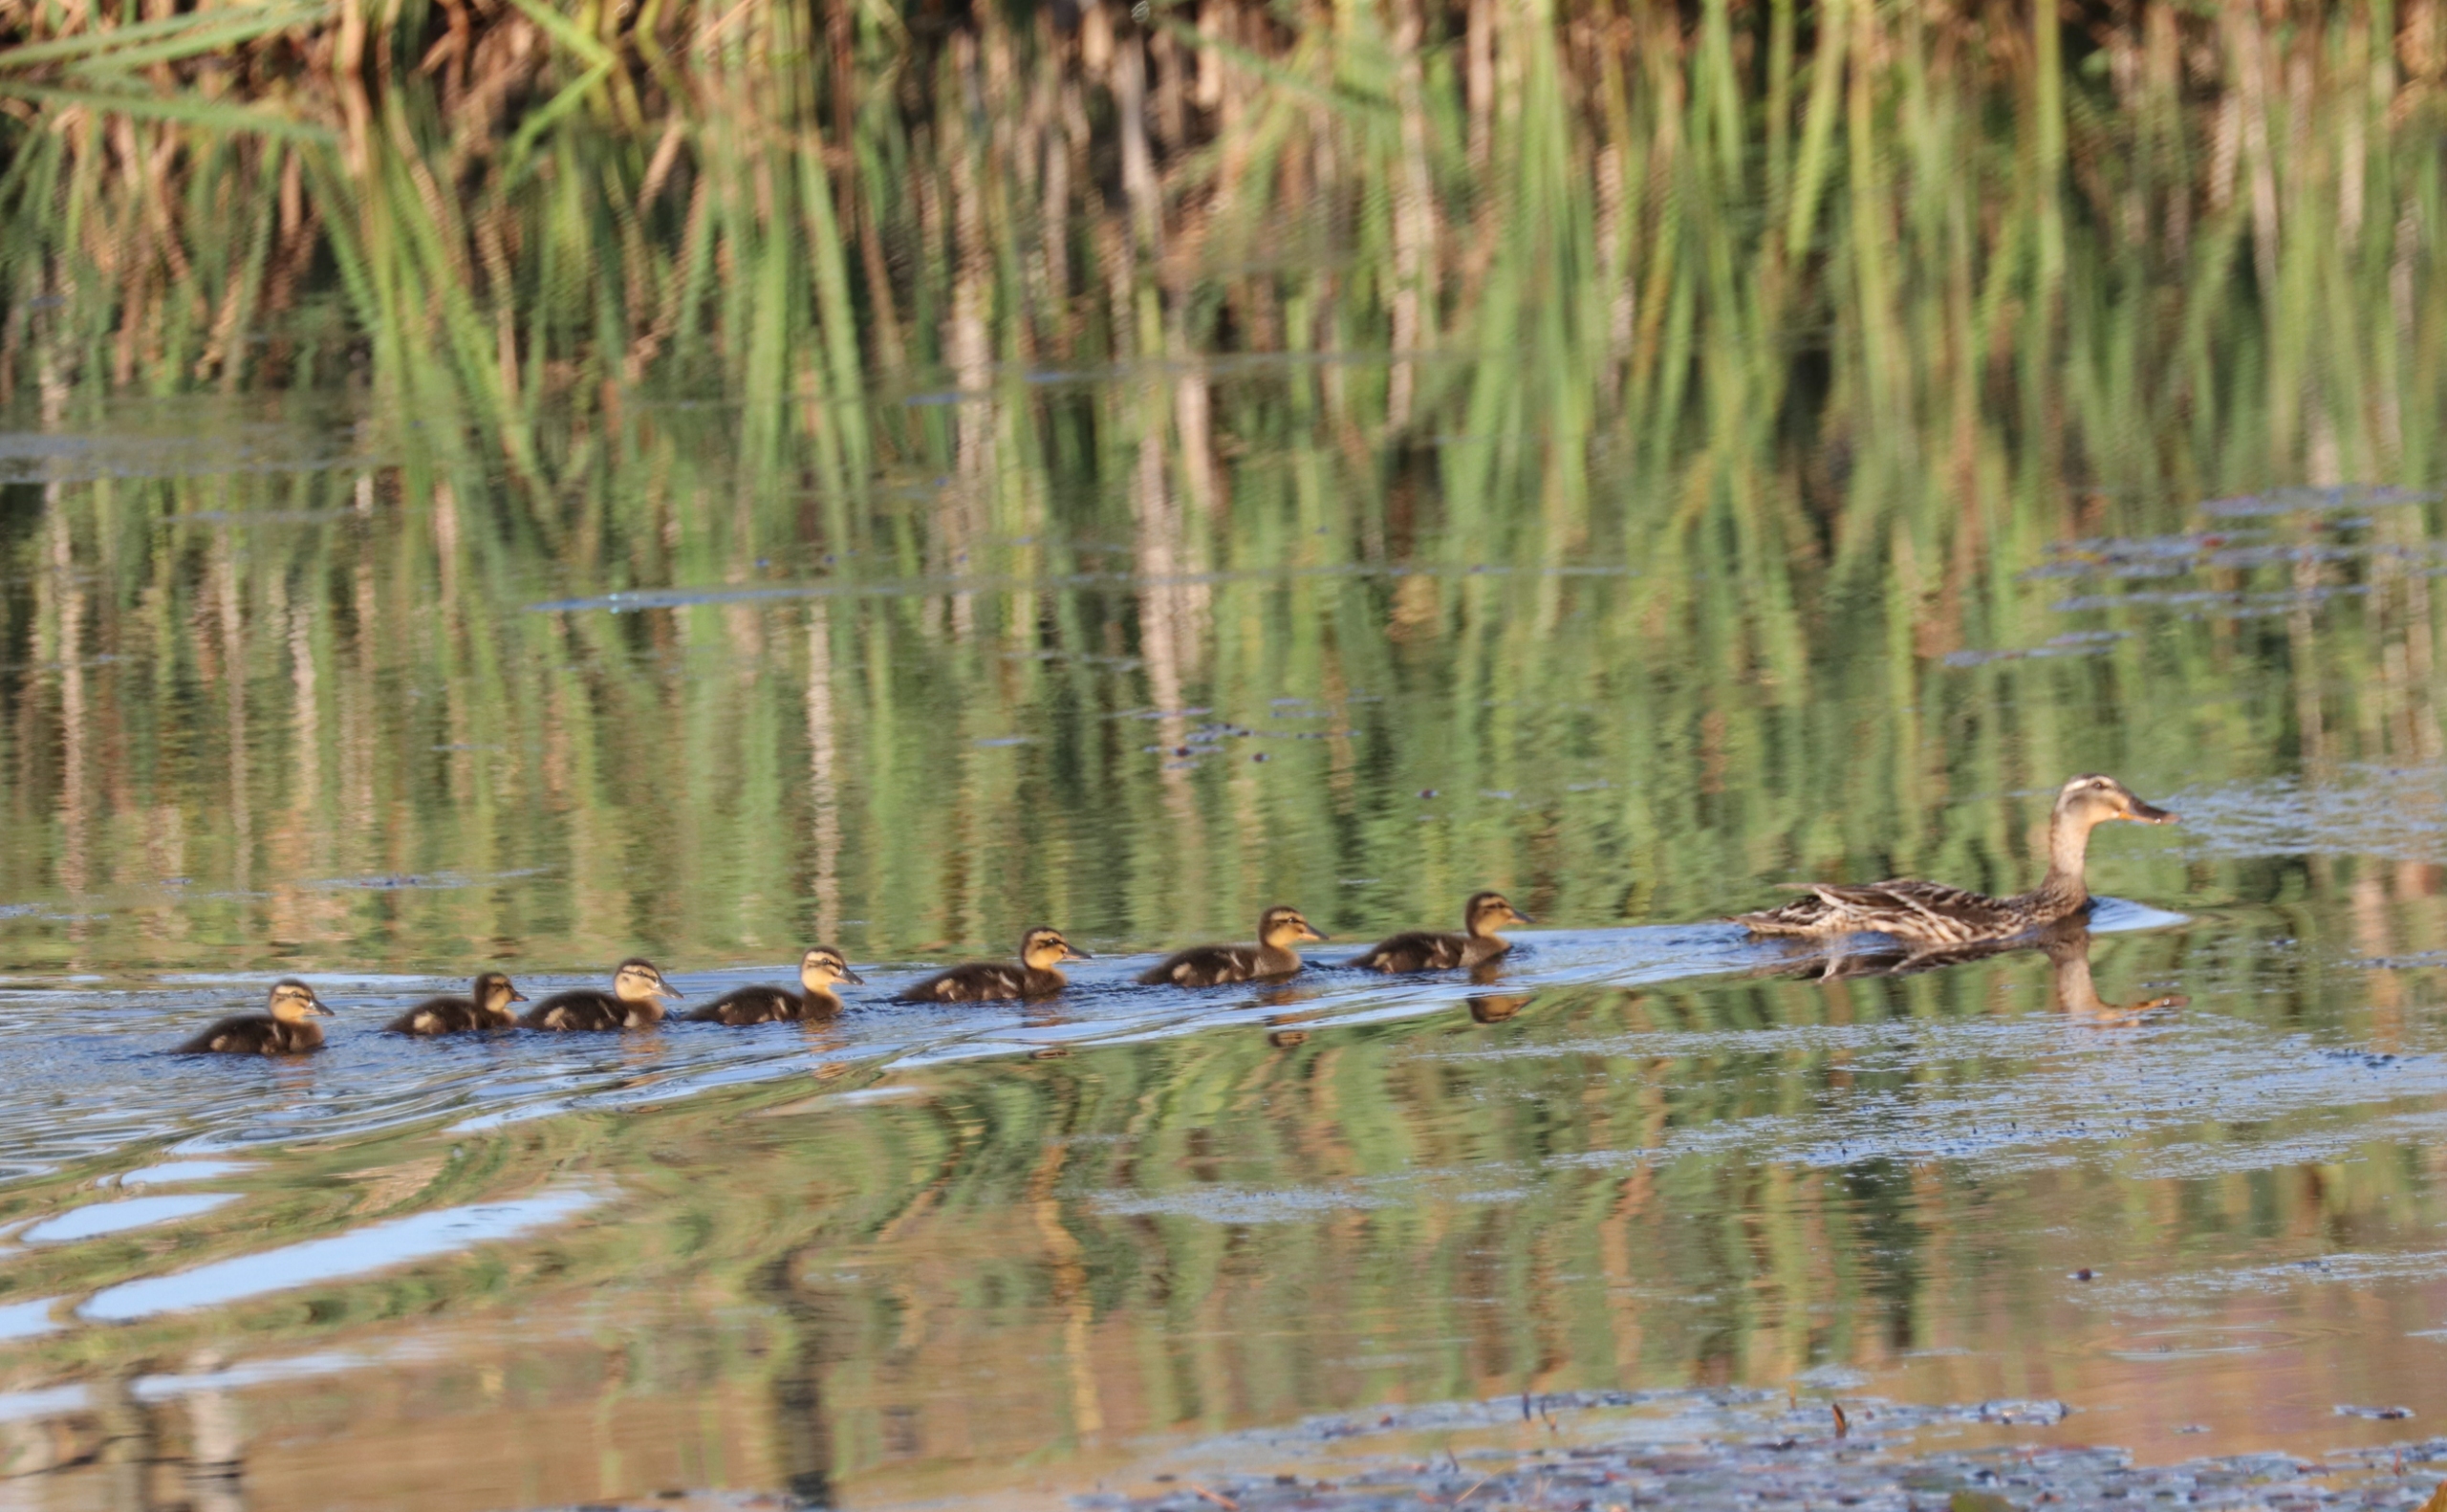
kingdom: Animalia
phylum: Chordata
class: Aves
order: Anseriformes
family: Anatidae
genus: Anas
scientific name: Anas platyrhynchos
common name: Gråand
